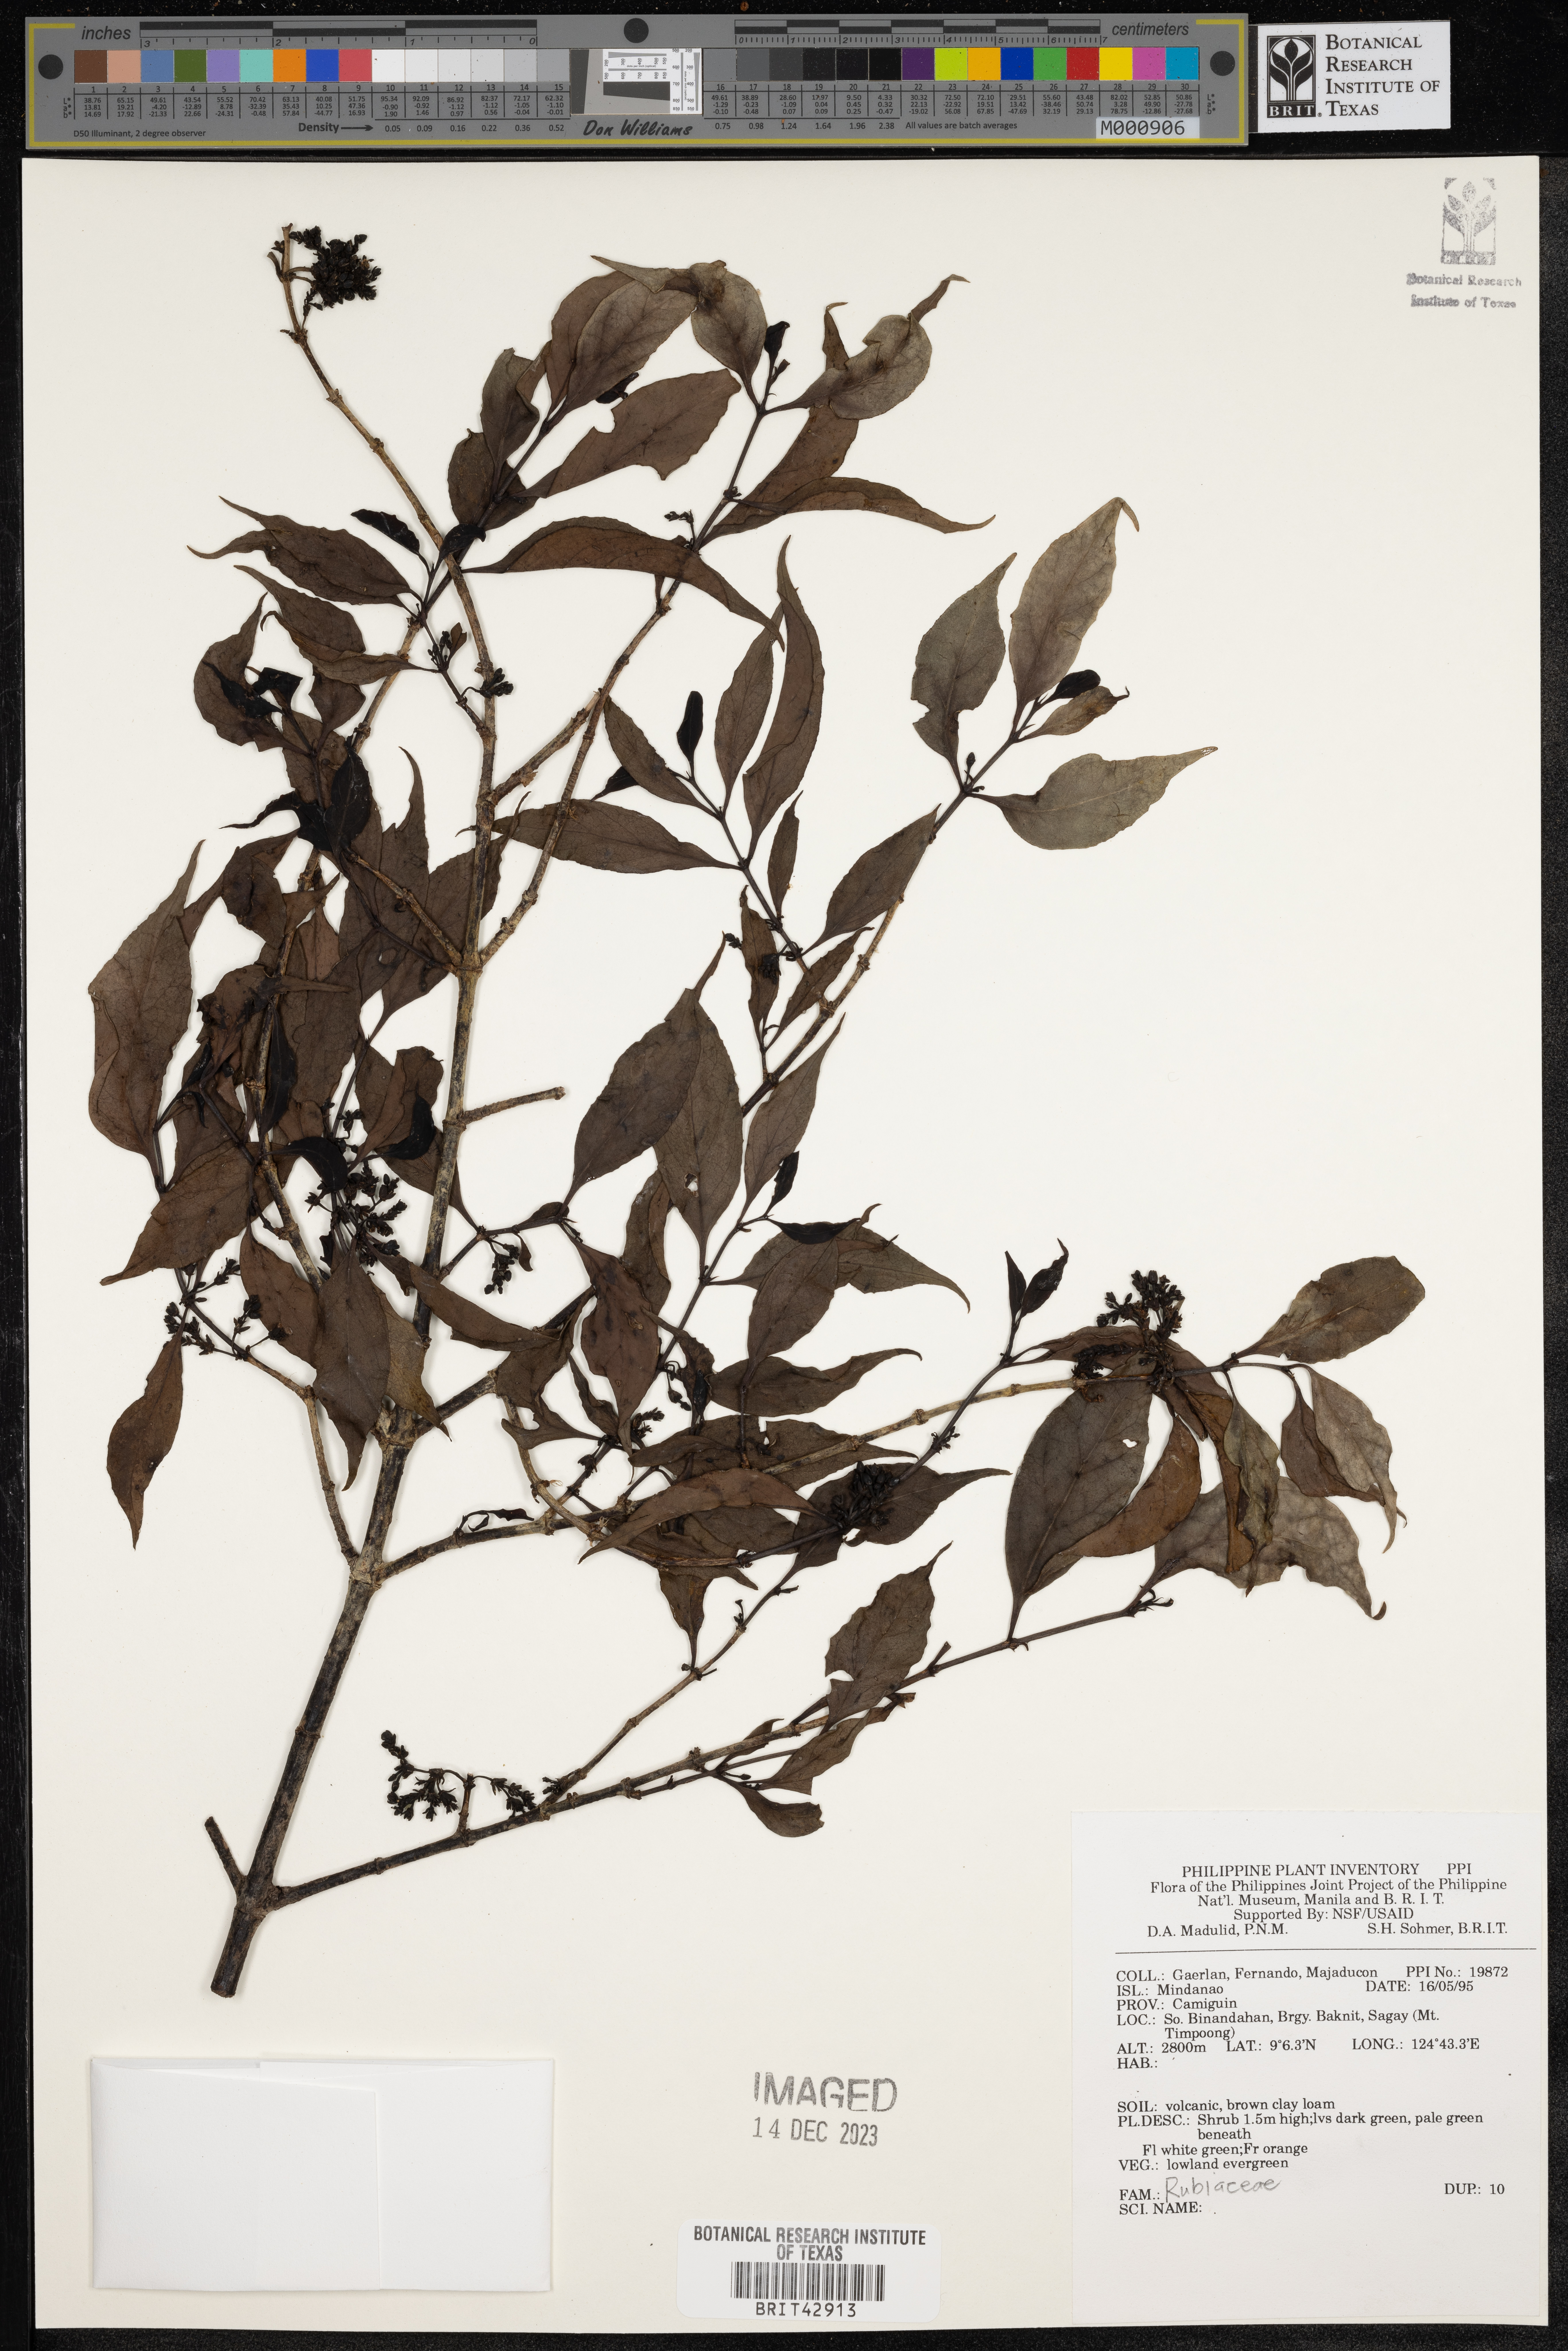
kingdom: Plantae
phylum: Tracheophyta
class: Magnoliopsida
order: Gentianales
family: Rubiaceae
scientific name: Rubiaceae
